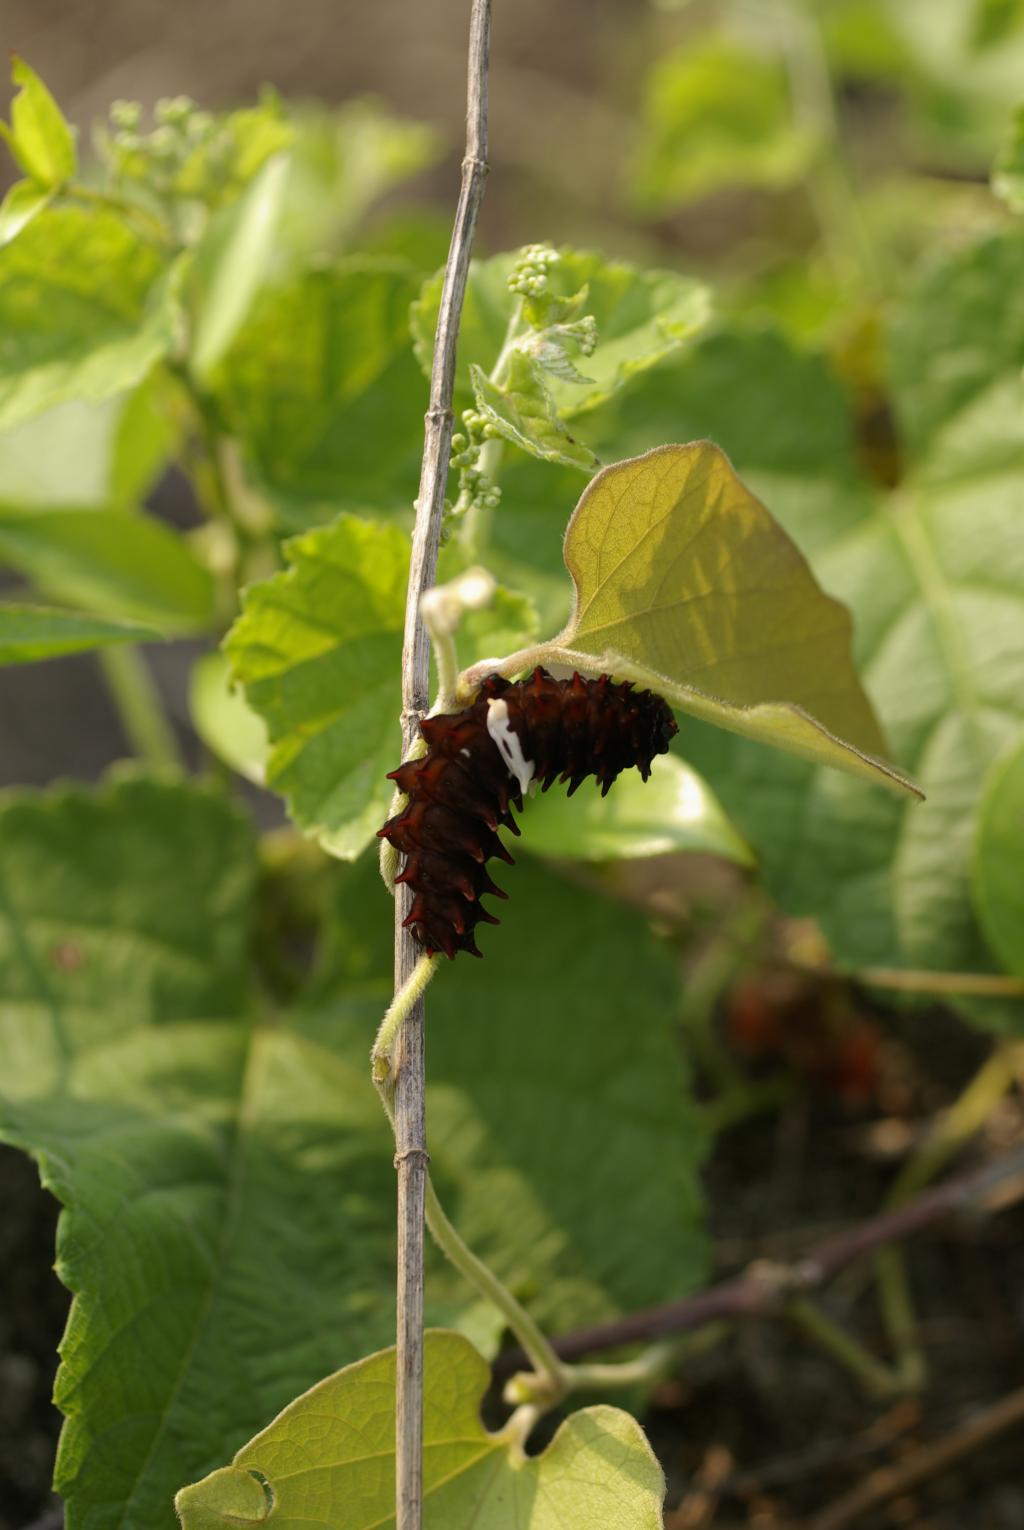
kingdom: Plantae
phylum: Tracheophyta
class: Magnoliopsida
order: Piperales
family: Aristolochiaceae
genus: Isotrema
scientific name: Isotrema kaempferi
